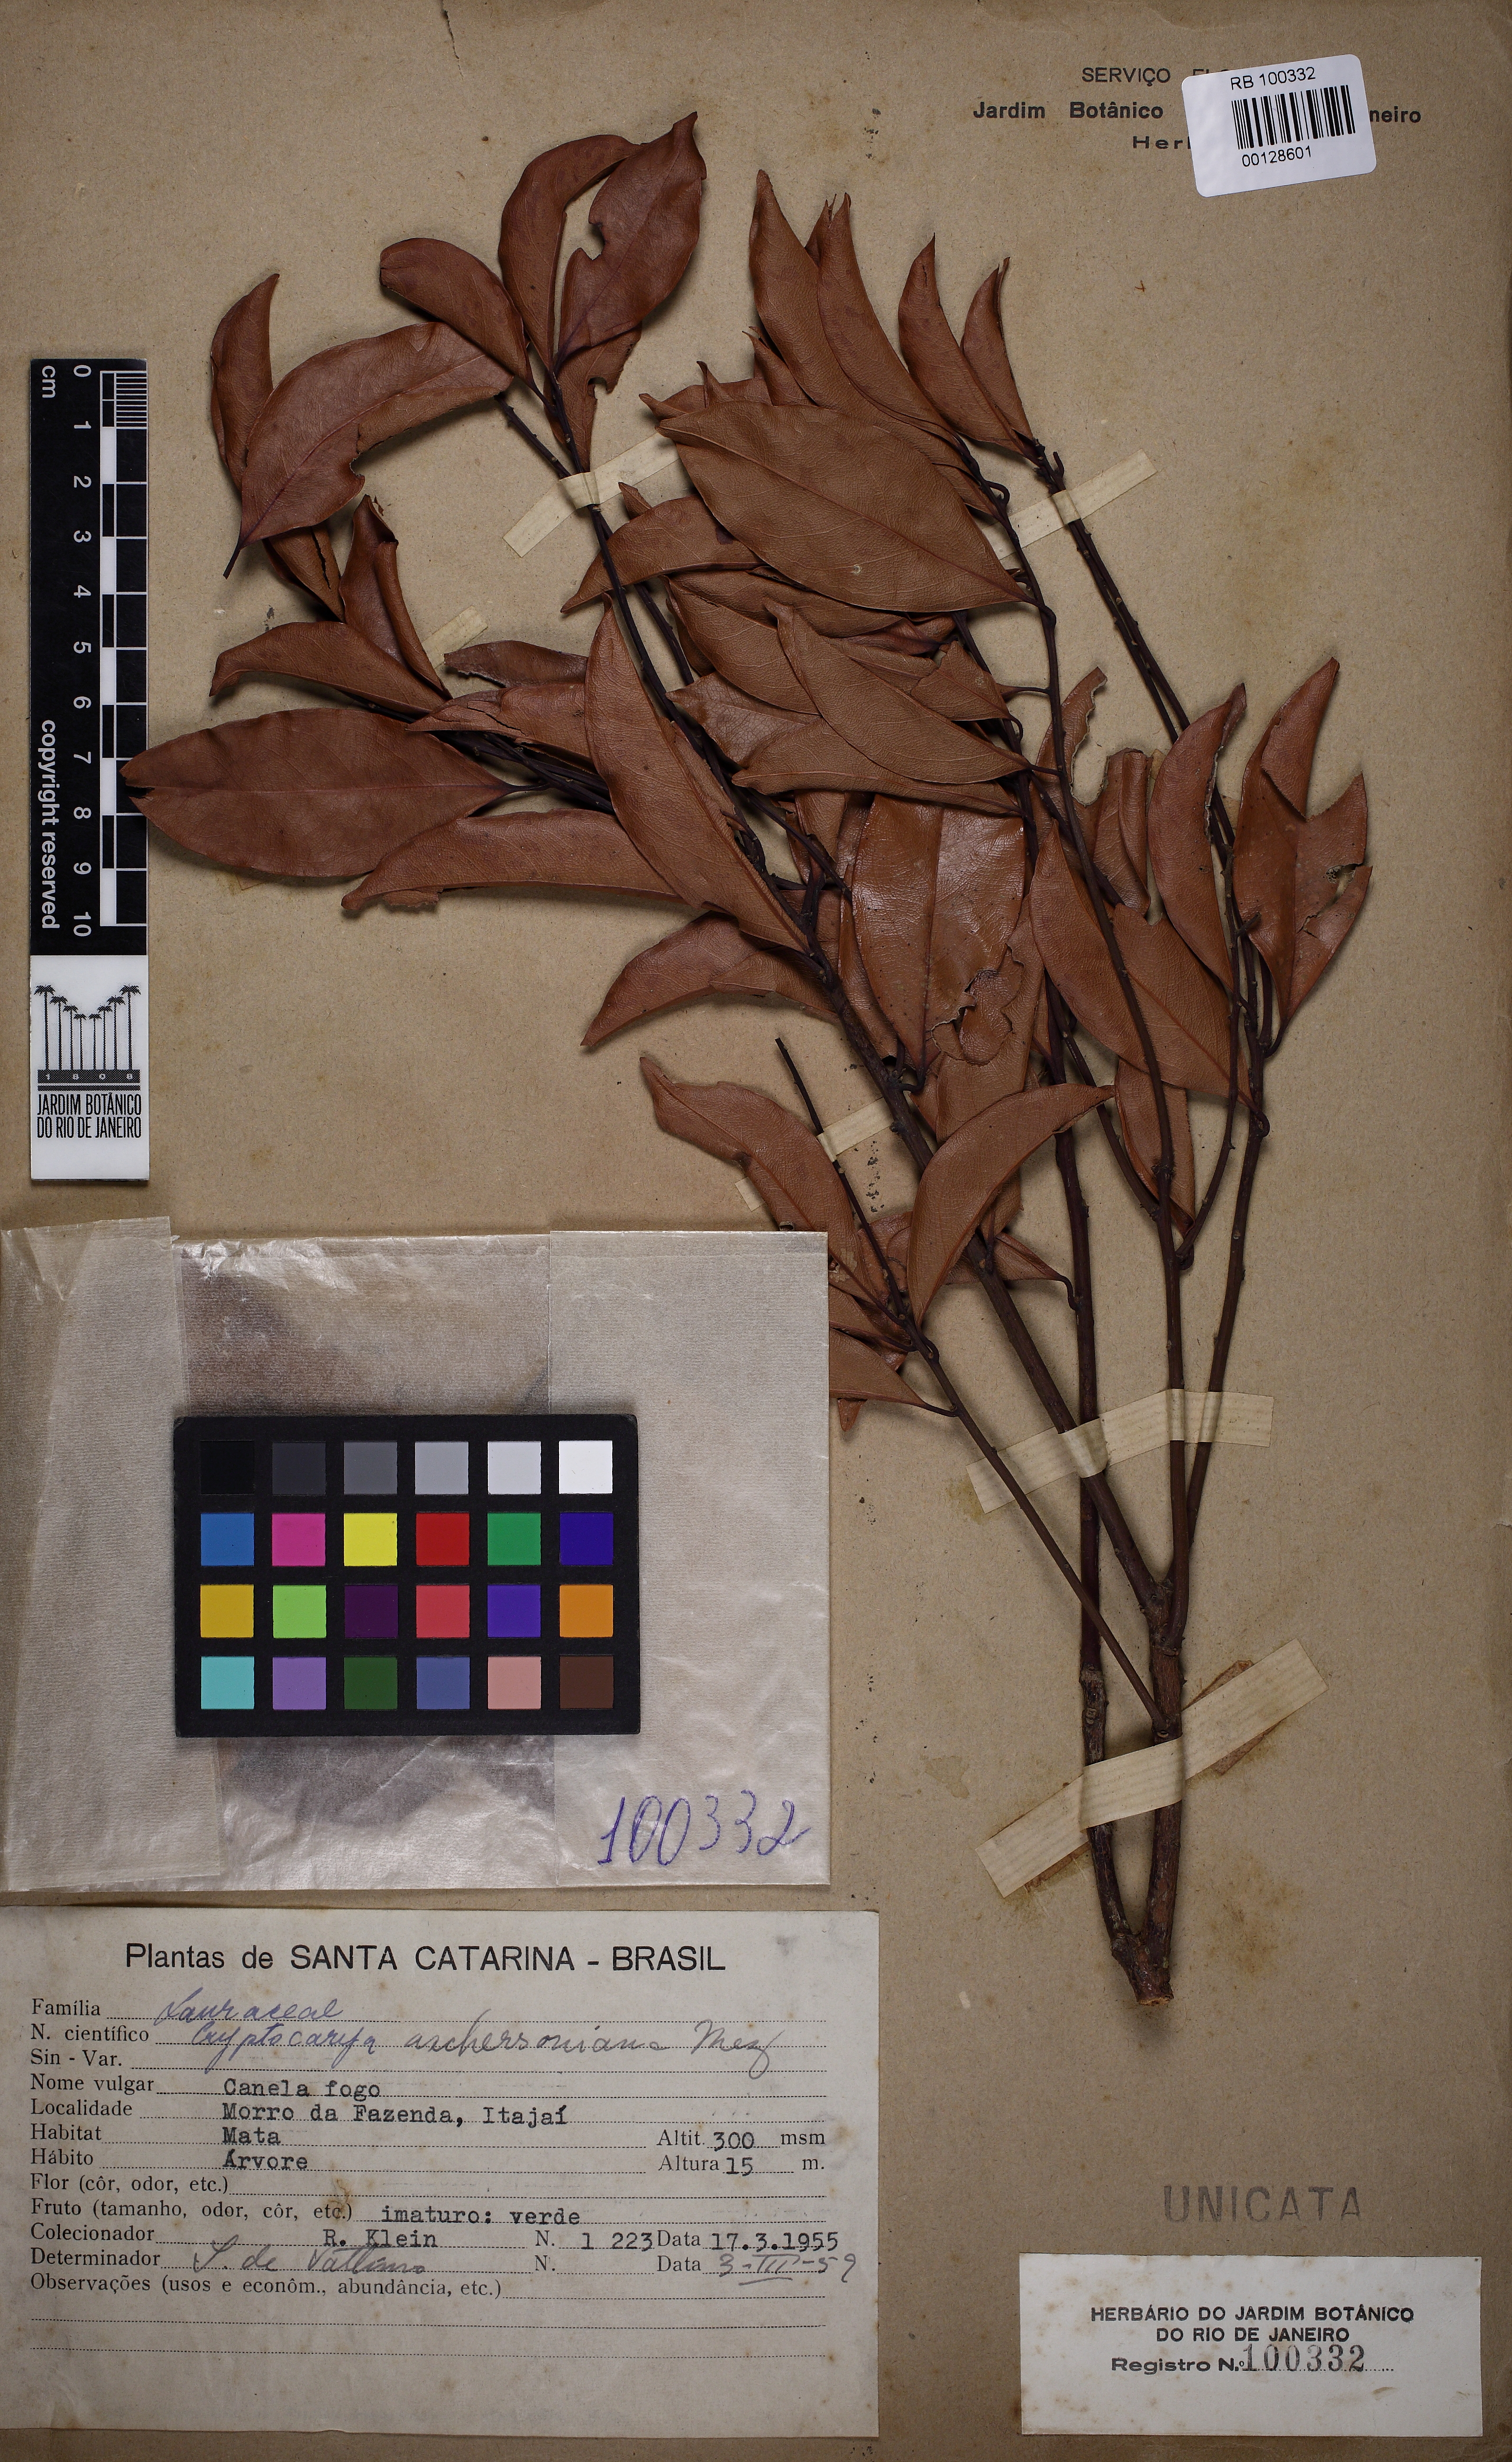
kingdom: Plantae
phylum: Tracheophyta
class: Magnoliopsida
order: Laurales
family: Lauraceae
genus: Cryptocarya
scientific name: Cryptocarya aschersoniana
